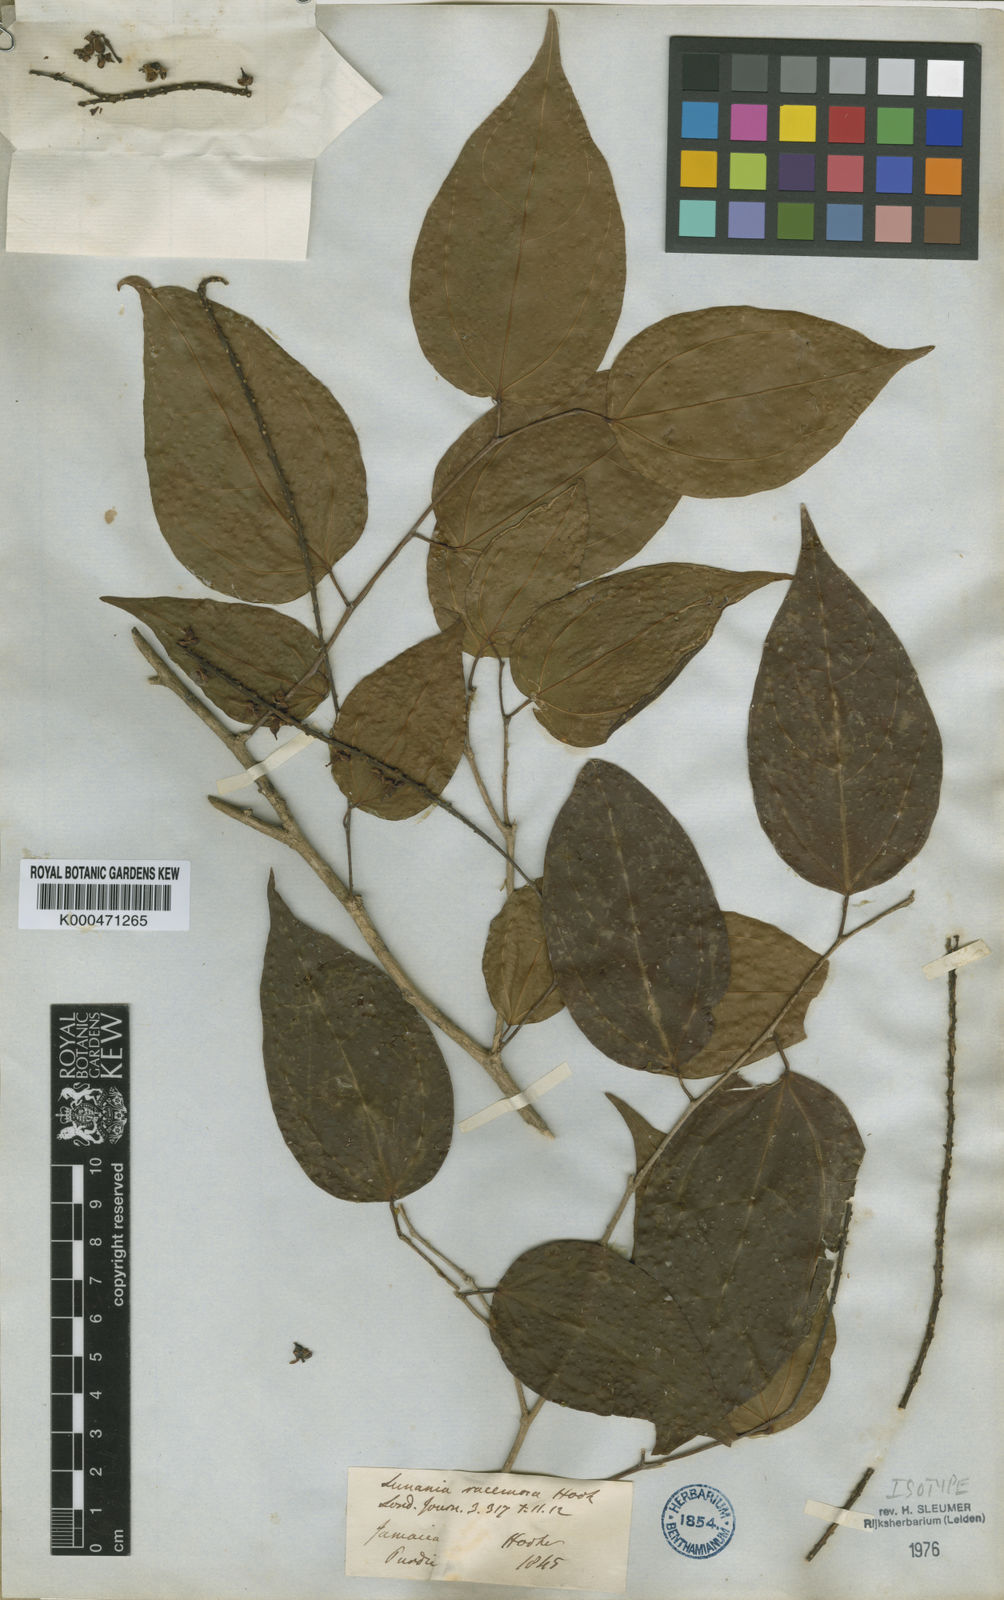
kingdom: Plantae
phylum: Tracheophyta
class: Magnoliopsida
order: Malpighiales
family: Salicaceae
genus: Lunania
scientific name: Lunania racemosa
